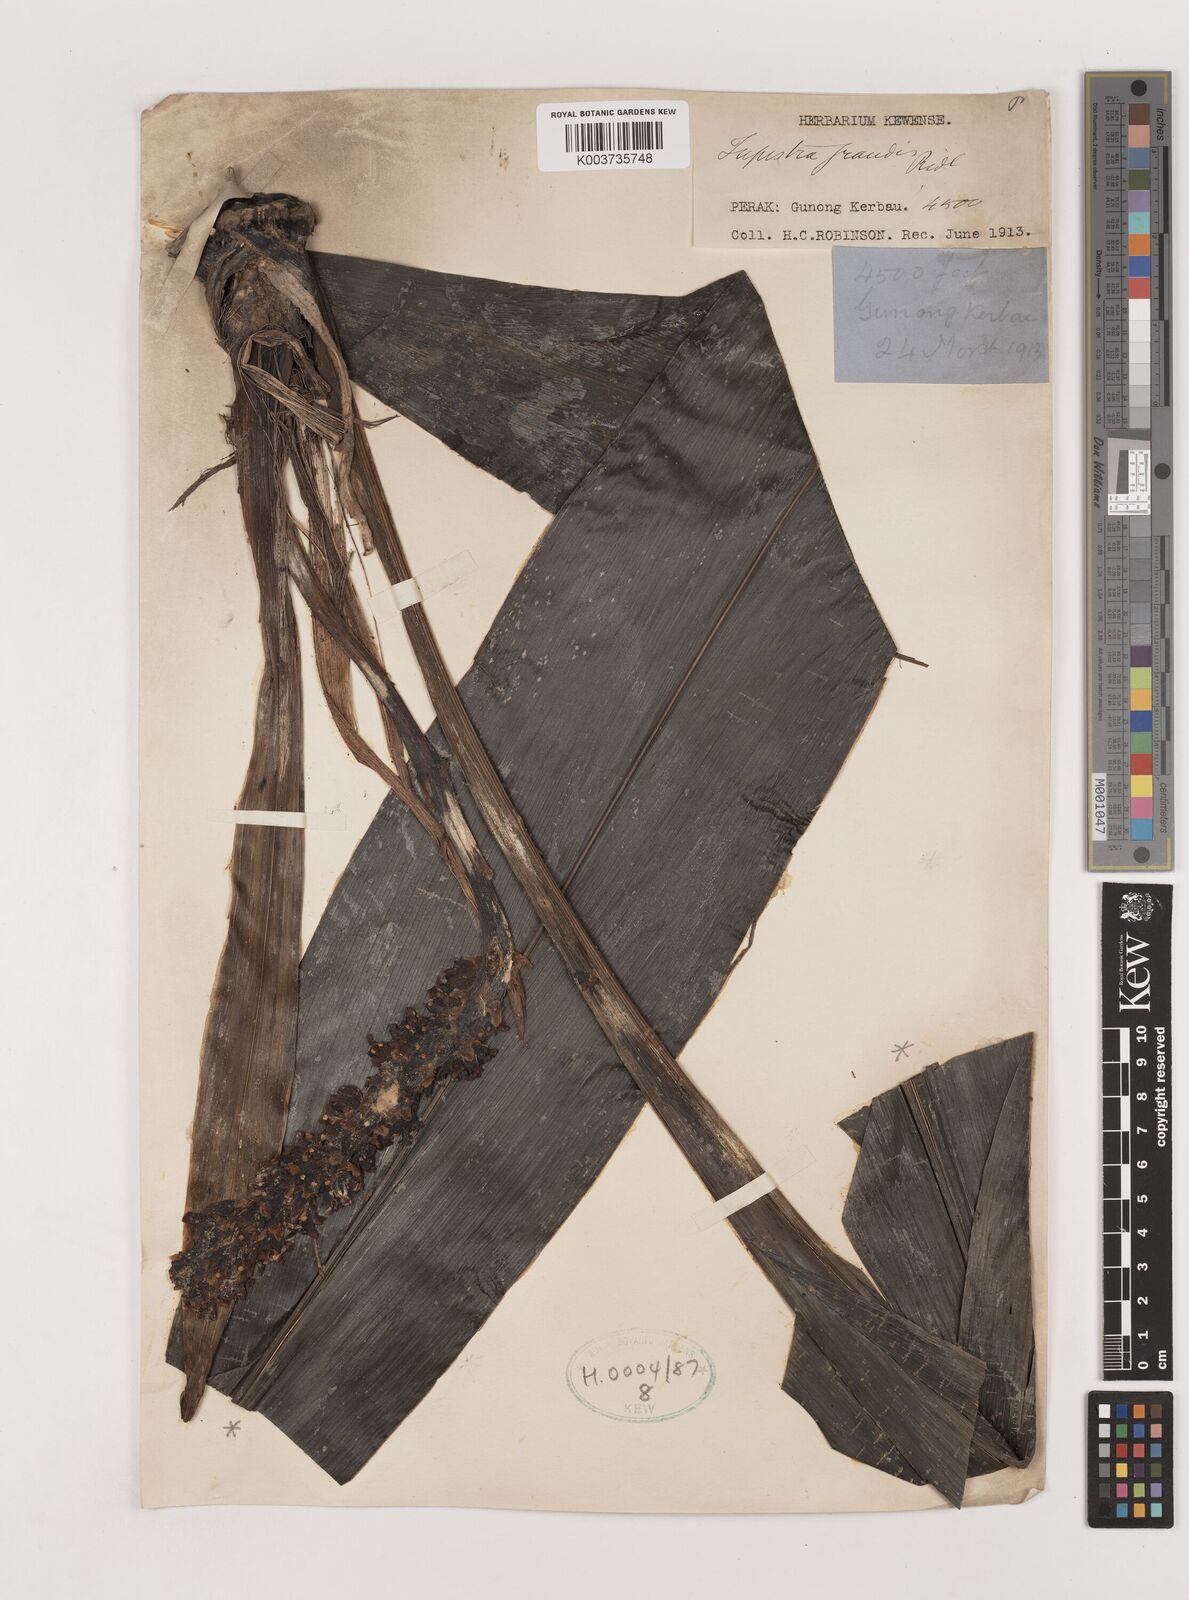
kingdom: Plantae
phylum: Tracheophyta
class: Liliopsida
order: Asparagales
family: Asparagaceae
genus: Tupistra
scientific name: Tupistra grandis
